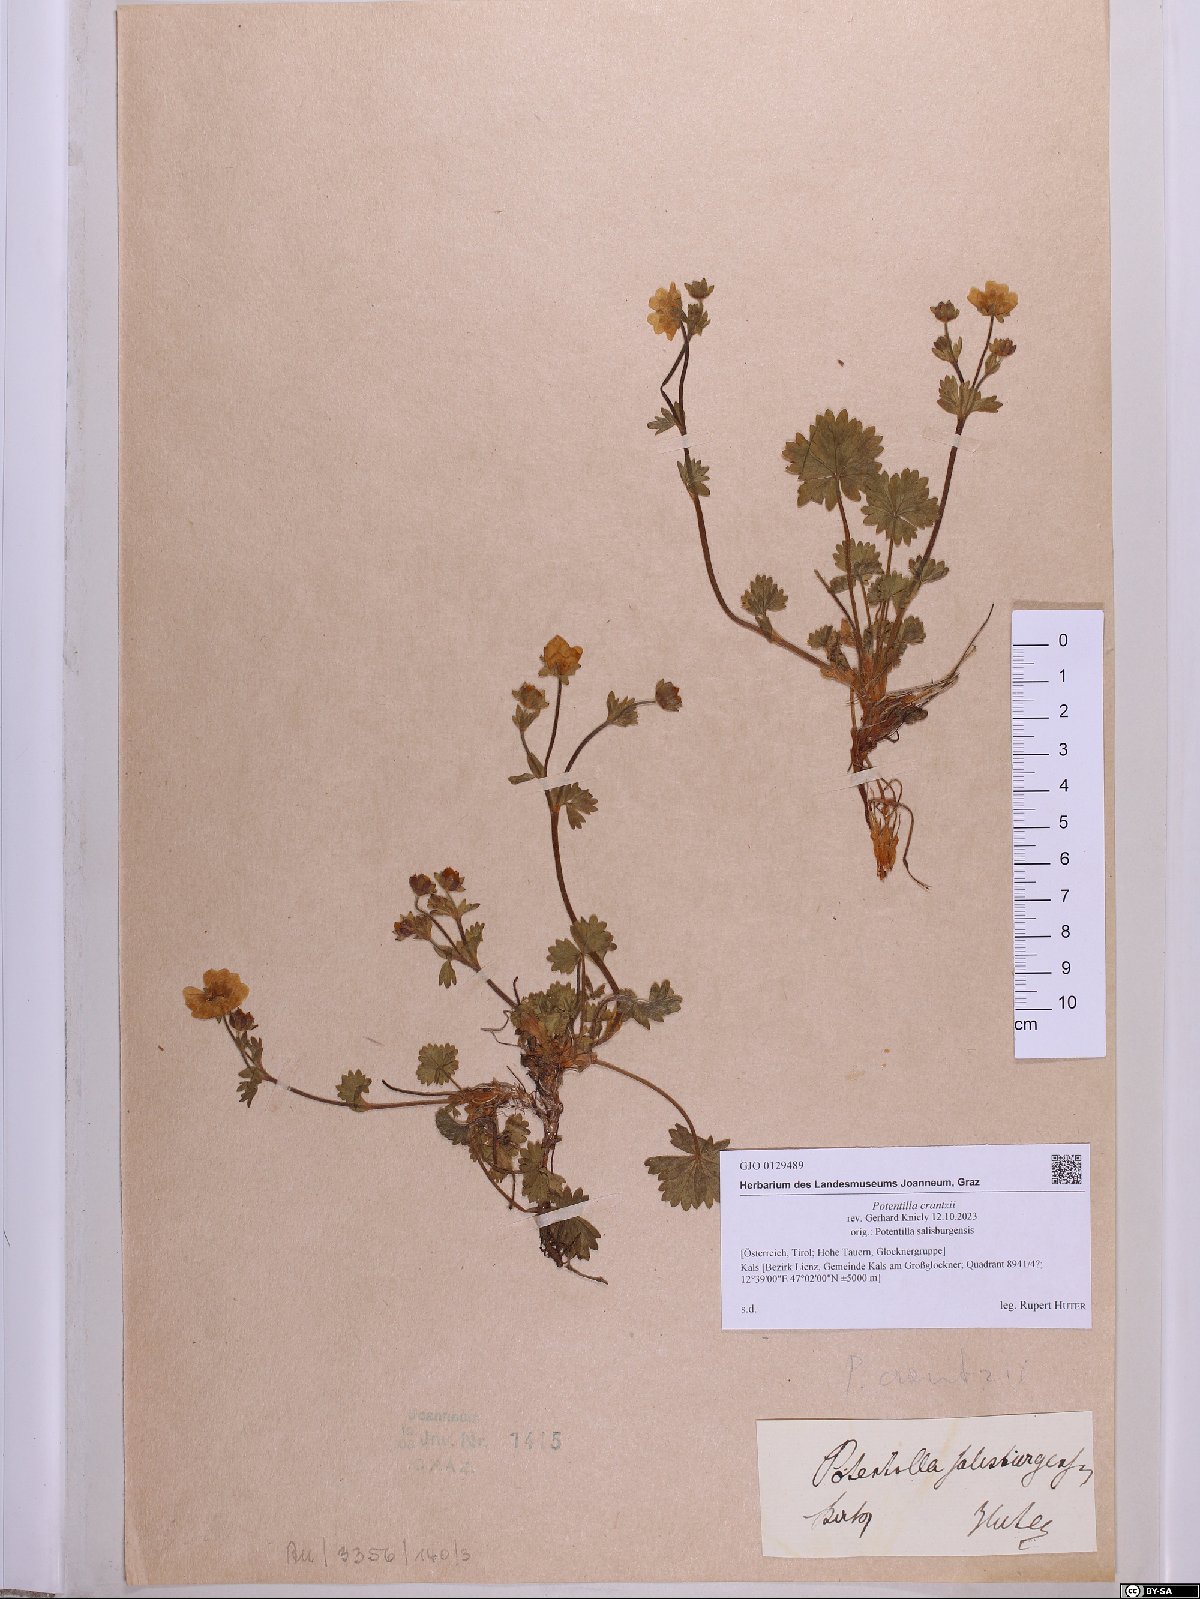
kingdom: Plantae
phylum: Tracheophyta
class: Magnoliopsida
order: Rosales
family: Rosaceae
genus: Potentilla
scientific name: Potentilla crantzii
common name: Alpine cinquefoil
